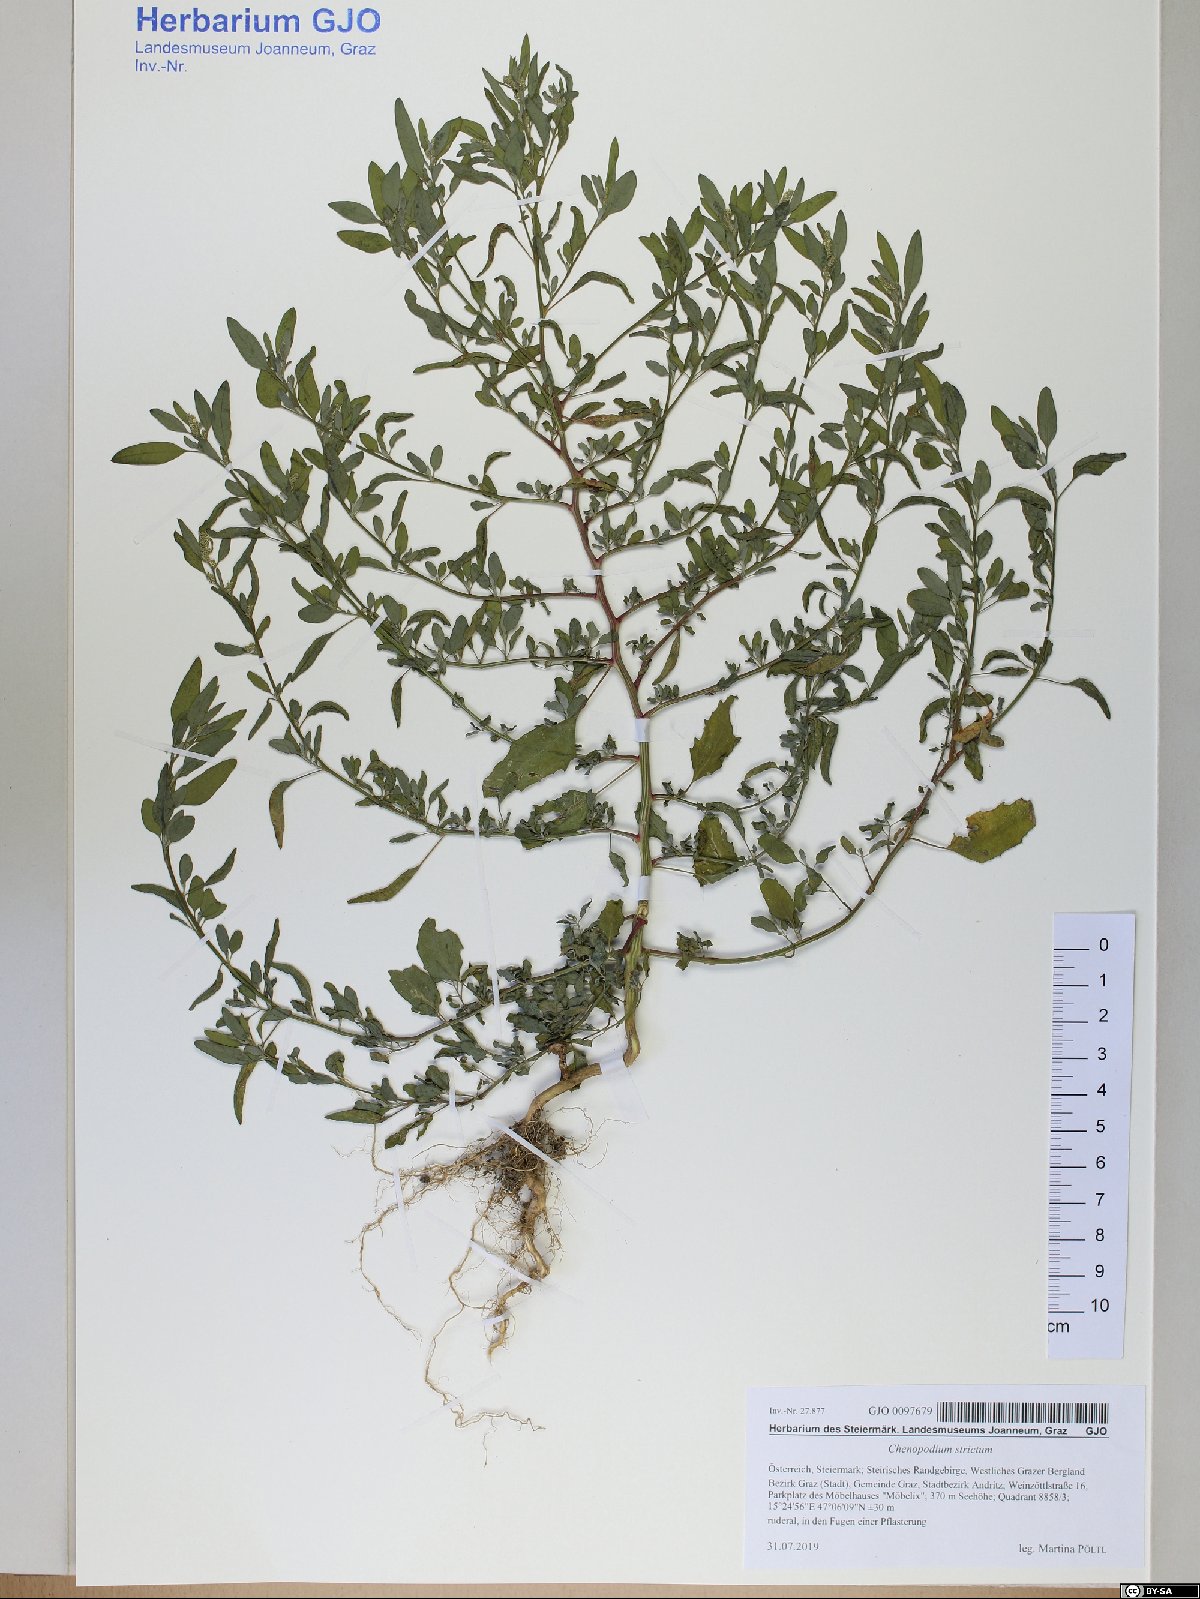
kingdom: Plantae
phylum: Tracheophyta
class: Magnoliopsida
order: Caryophyllales
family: Amaranthaceae
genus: Chenopodium
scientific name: Chenopodium album
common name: Fat-hen
